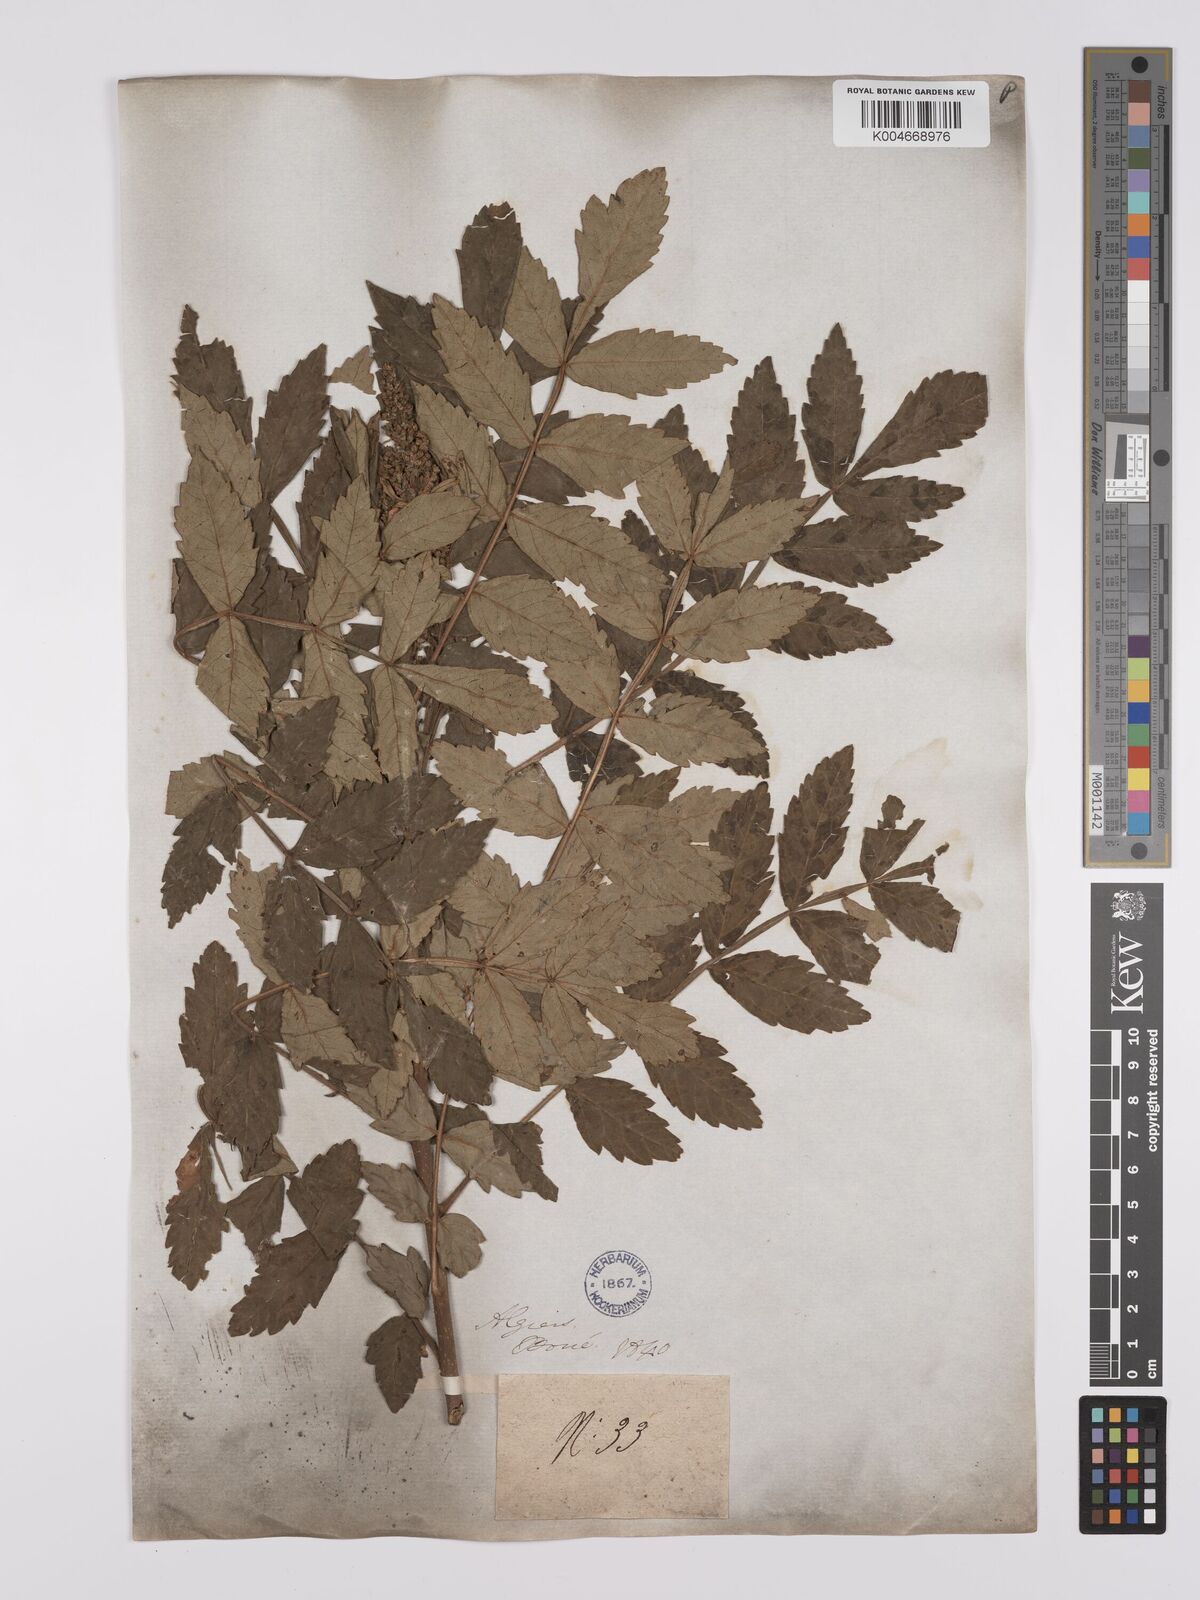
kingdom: Plantae
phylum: Tracheophyta
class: Magnoliopsida
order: Sapindales
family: Anacardiaceae
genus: Rhus
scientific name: Rhus coriaria
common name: Tanner's sumach
